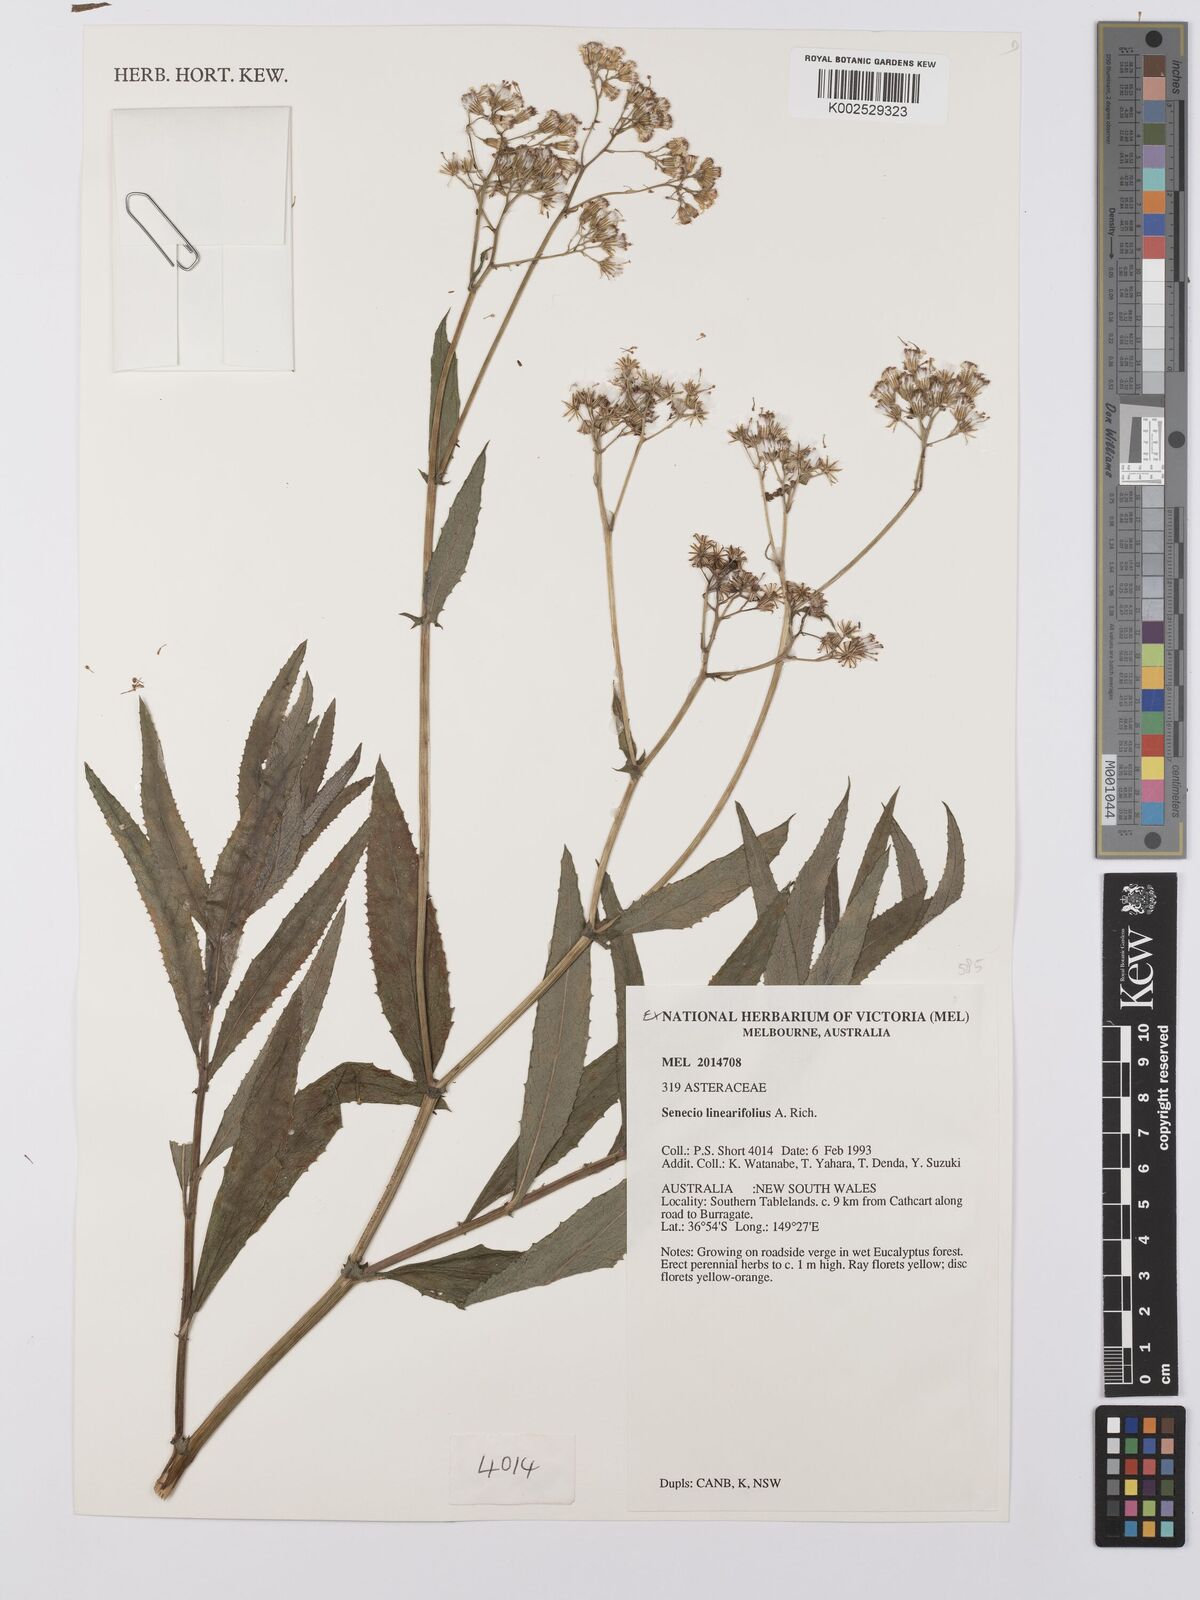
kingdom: Plantae
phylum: Tracheophyta
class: Magnoliopsida
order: Asterales
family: Asteraceae
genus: Senecio
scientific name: Senecio linearifolius
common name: Fireweed groundsel
